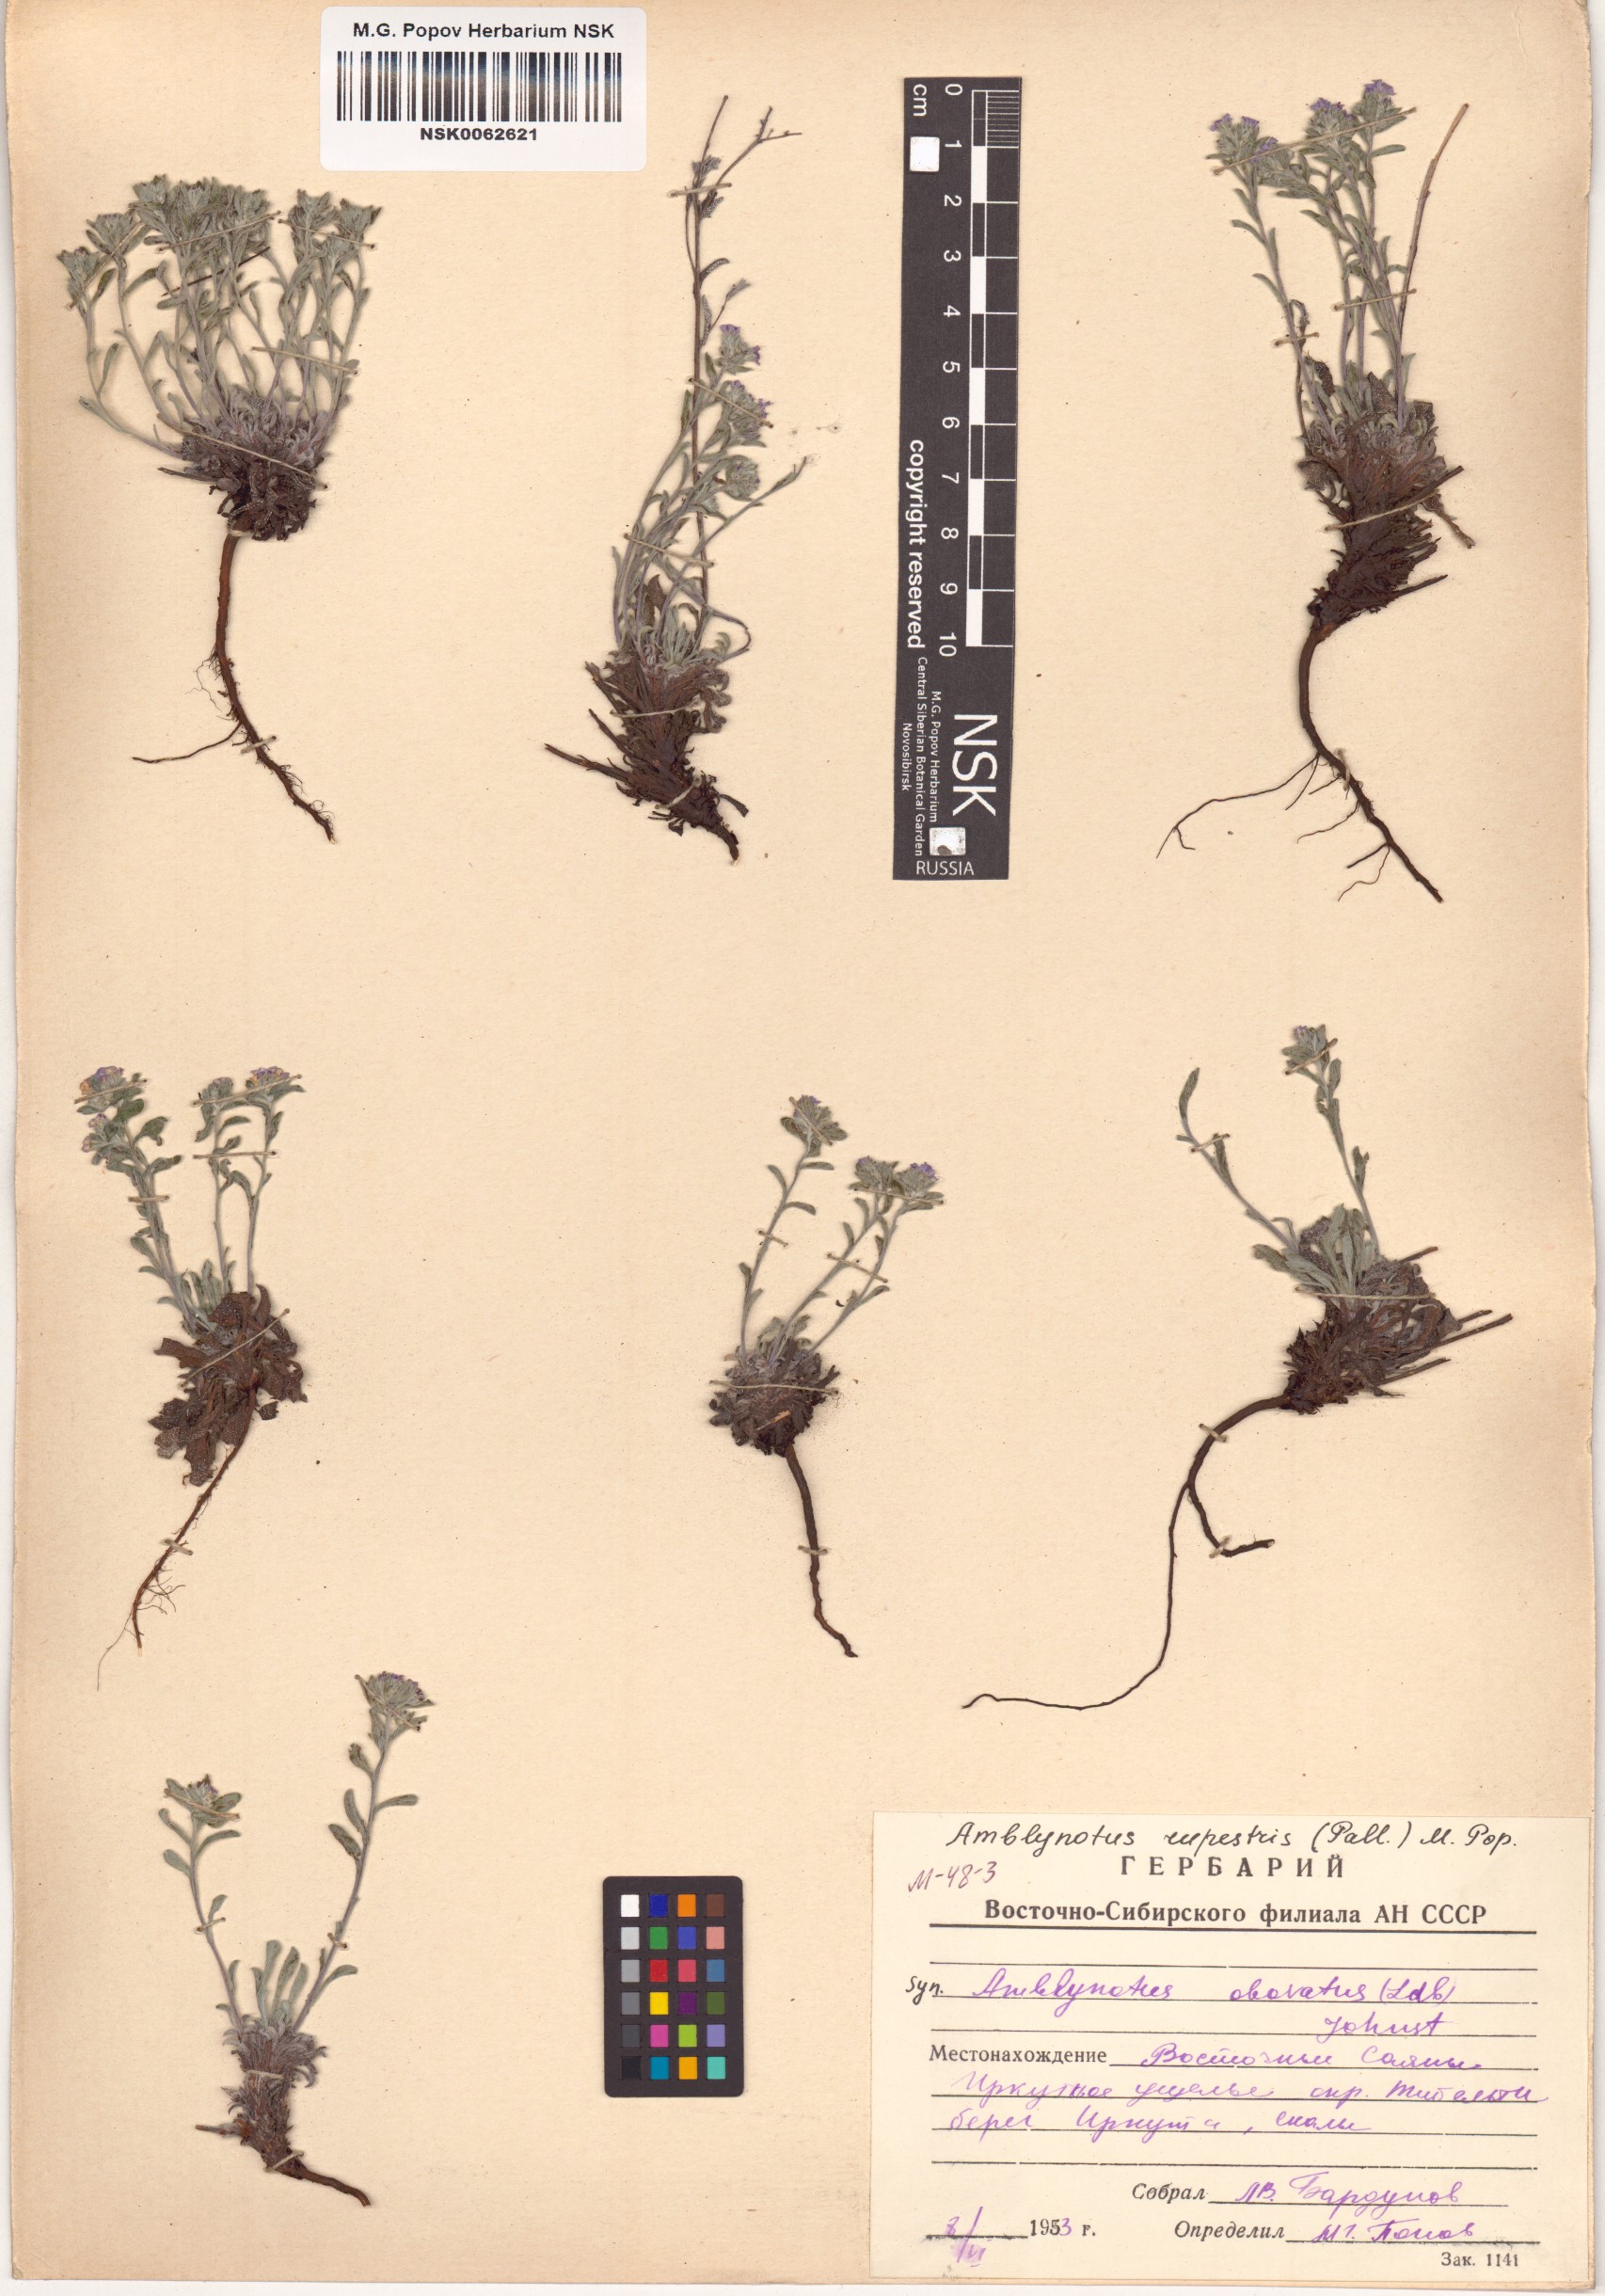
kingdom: Plantae
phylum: Tracheophyta
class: Magnoliopsida
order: Boraginales
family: Boraginaceae
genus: Eritrichium
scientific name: Eritrichium rupestre
